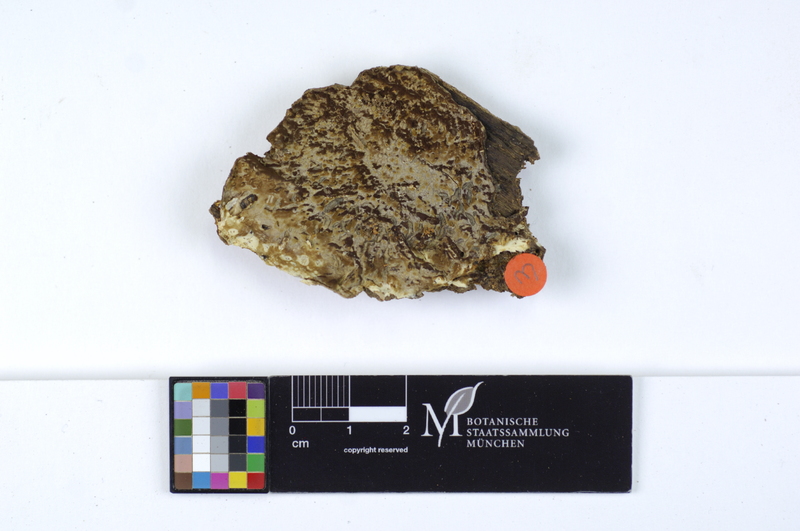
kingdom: Fungi
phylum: Basidiomycota
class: Agaricomycetes
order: Boletales
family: Coniophoraceae
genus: Coniophora
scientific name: Coniophora puteana
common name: Cellar fungus
